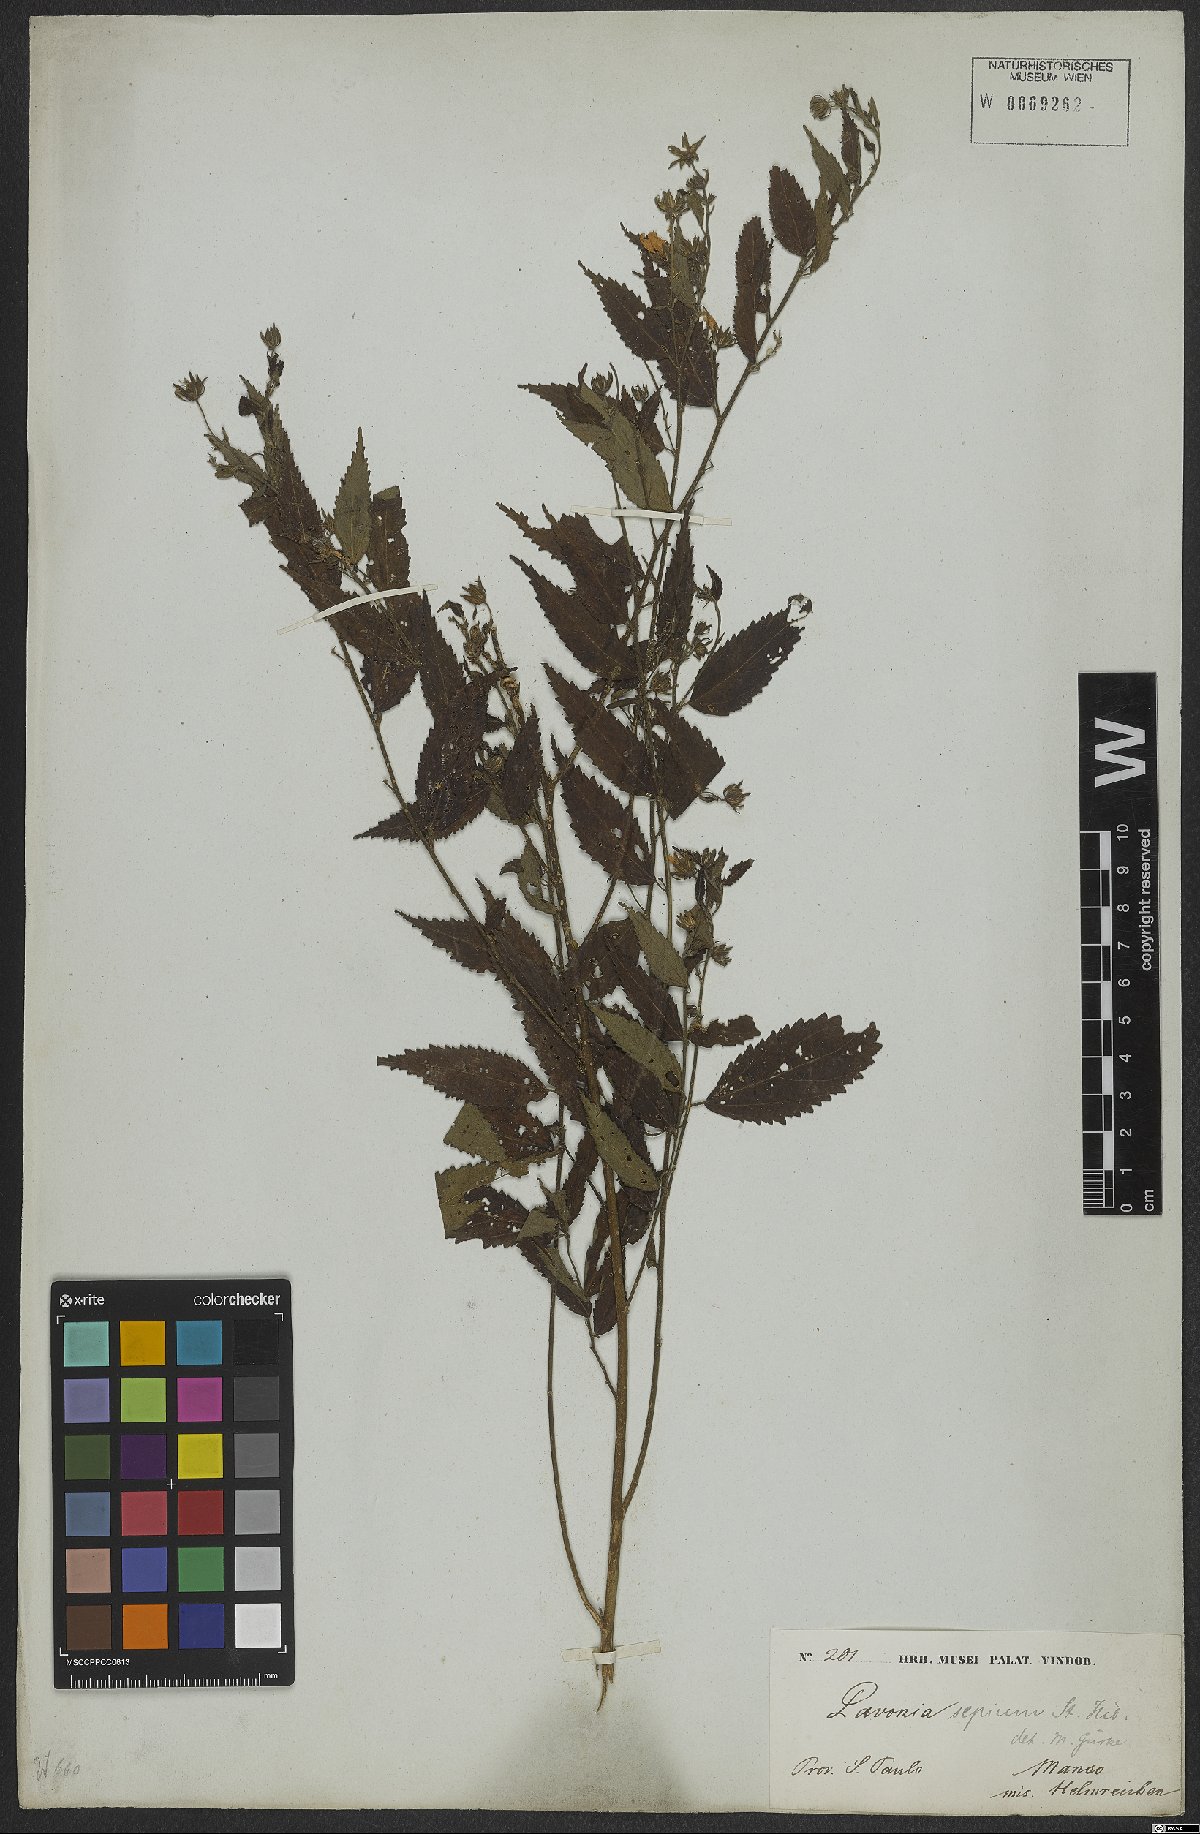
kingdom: Plantae
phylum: Tracheophyta
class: Magnoliopsida
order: Malvales
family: Malvaceae
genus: Pavonia
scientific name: Pavonia sepium
